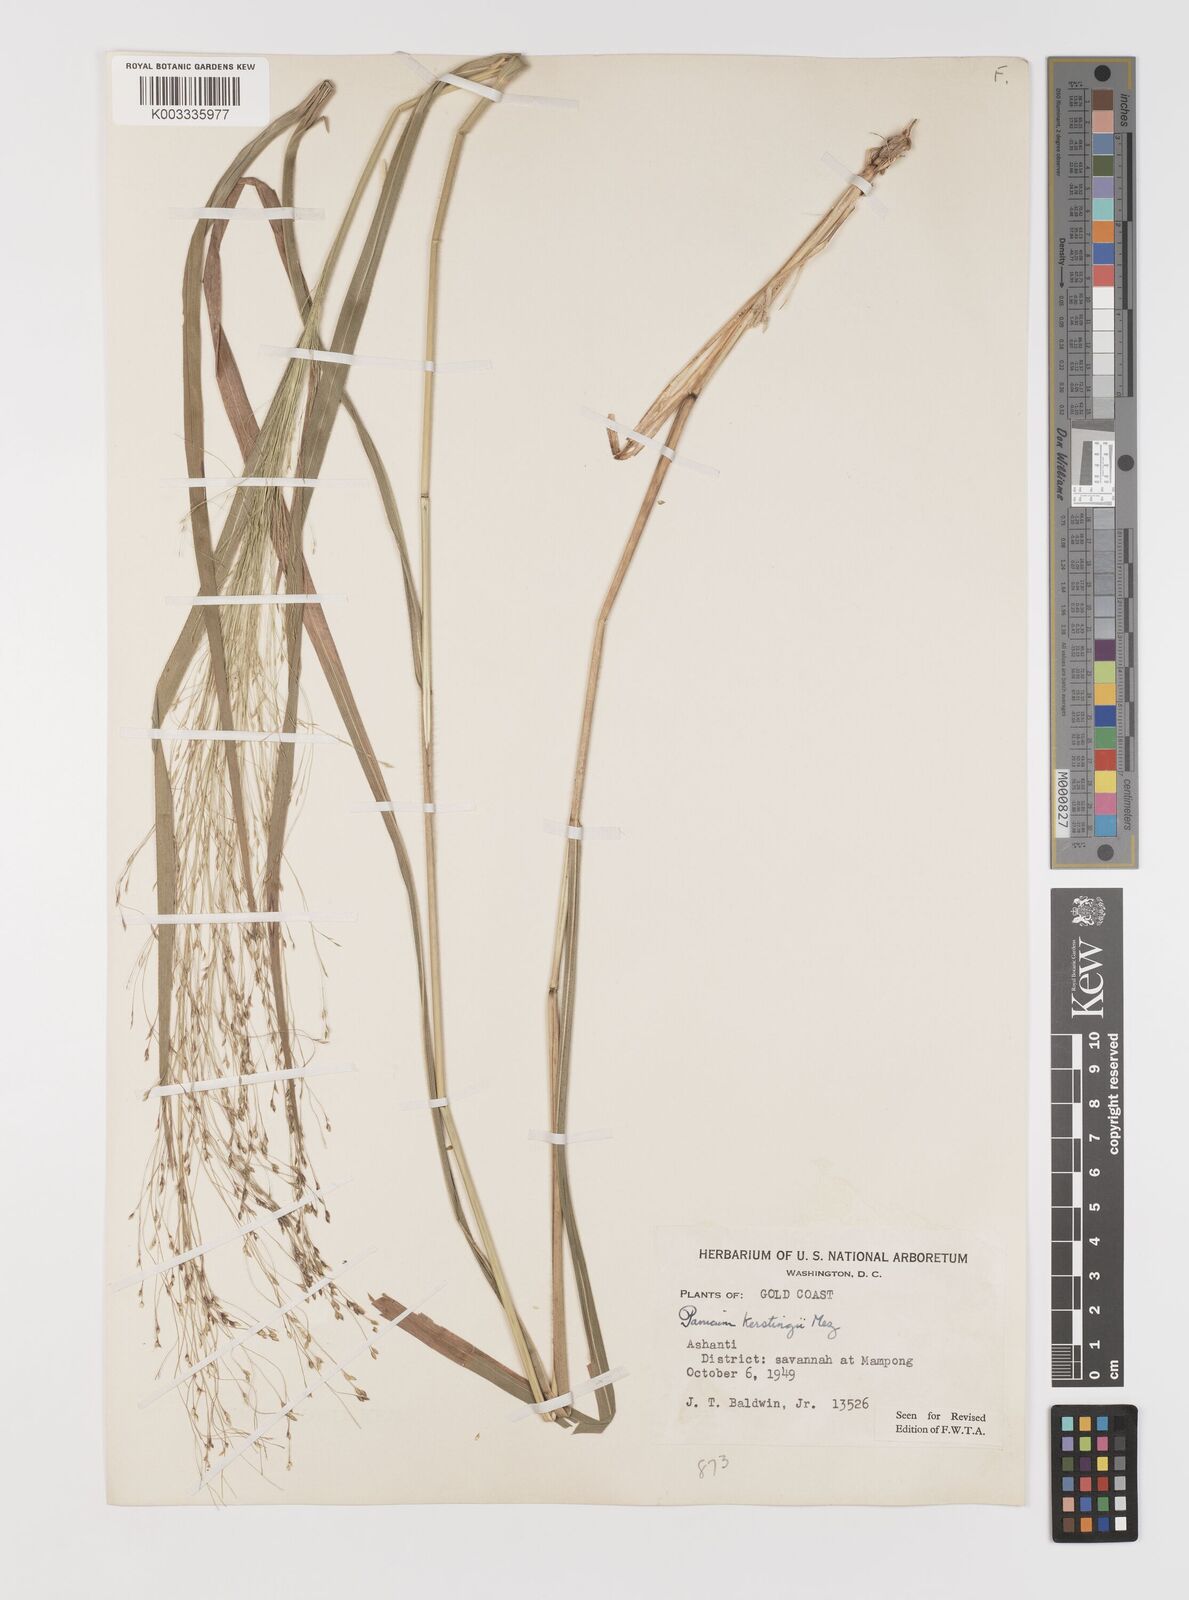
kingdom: Plantae
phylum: Tracheophyta
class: Liliopsida
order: Poales
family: Poaceae
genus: Panicum
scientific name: Panicum pansum
